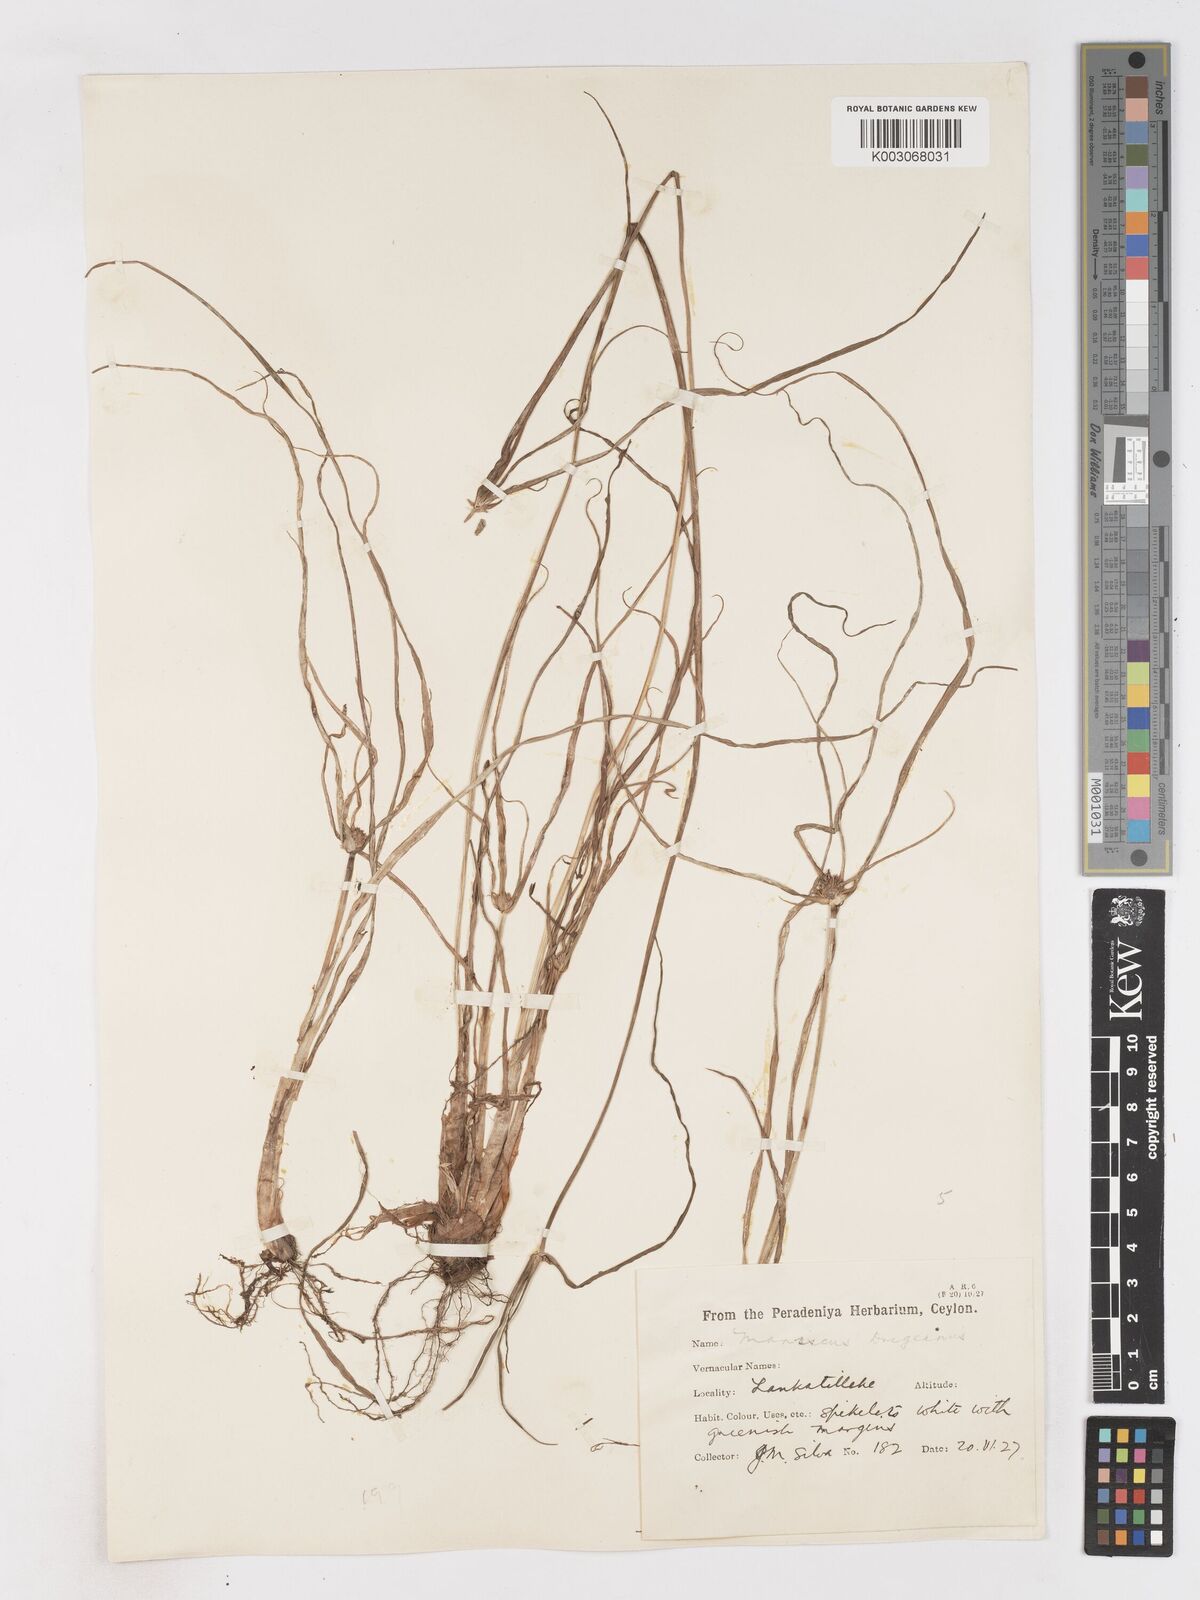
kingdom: Plantae
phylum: Tracheophyta
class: Liliopsida
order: Poales
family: Cyperaceae
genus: Cyperus
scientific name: Cyperus dubius
